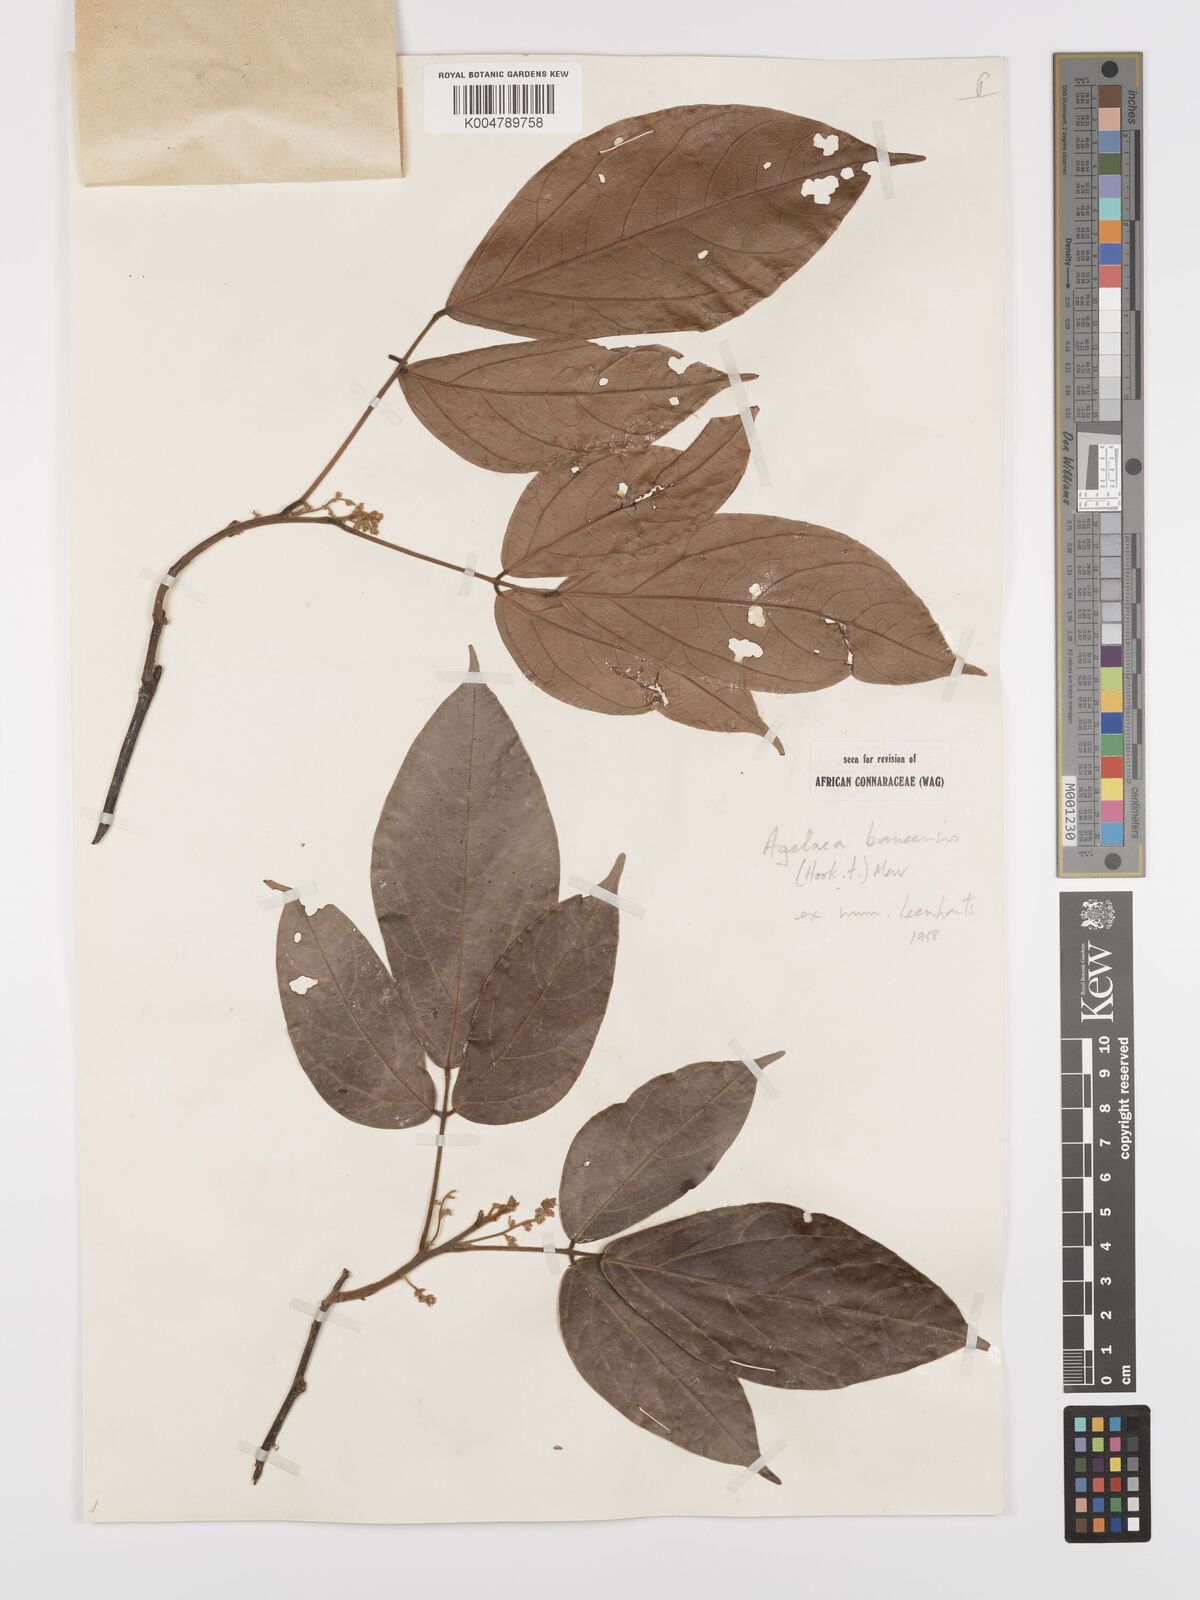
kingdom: Plantae
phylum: Tracheophyta
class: Magnoliopsida
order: Oxalidales
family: Connaraceae
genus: Agelaea
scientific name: Agelaea borneensis
